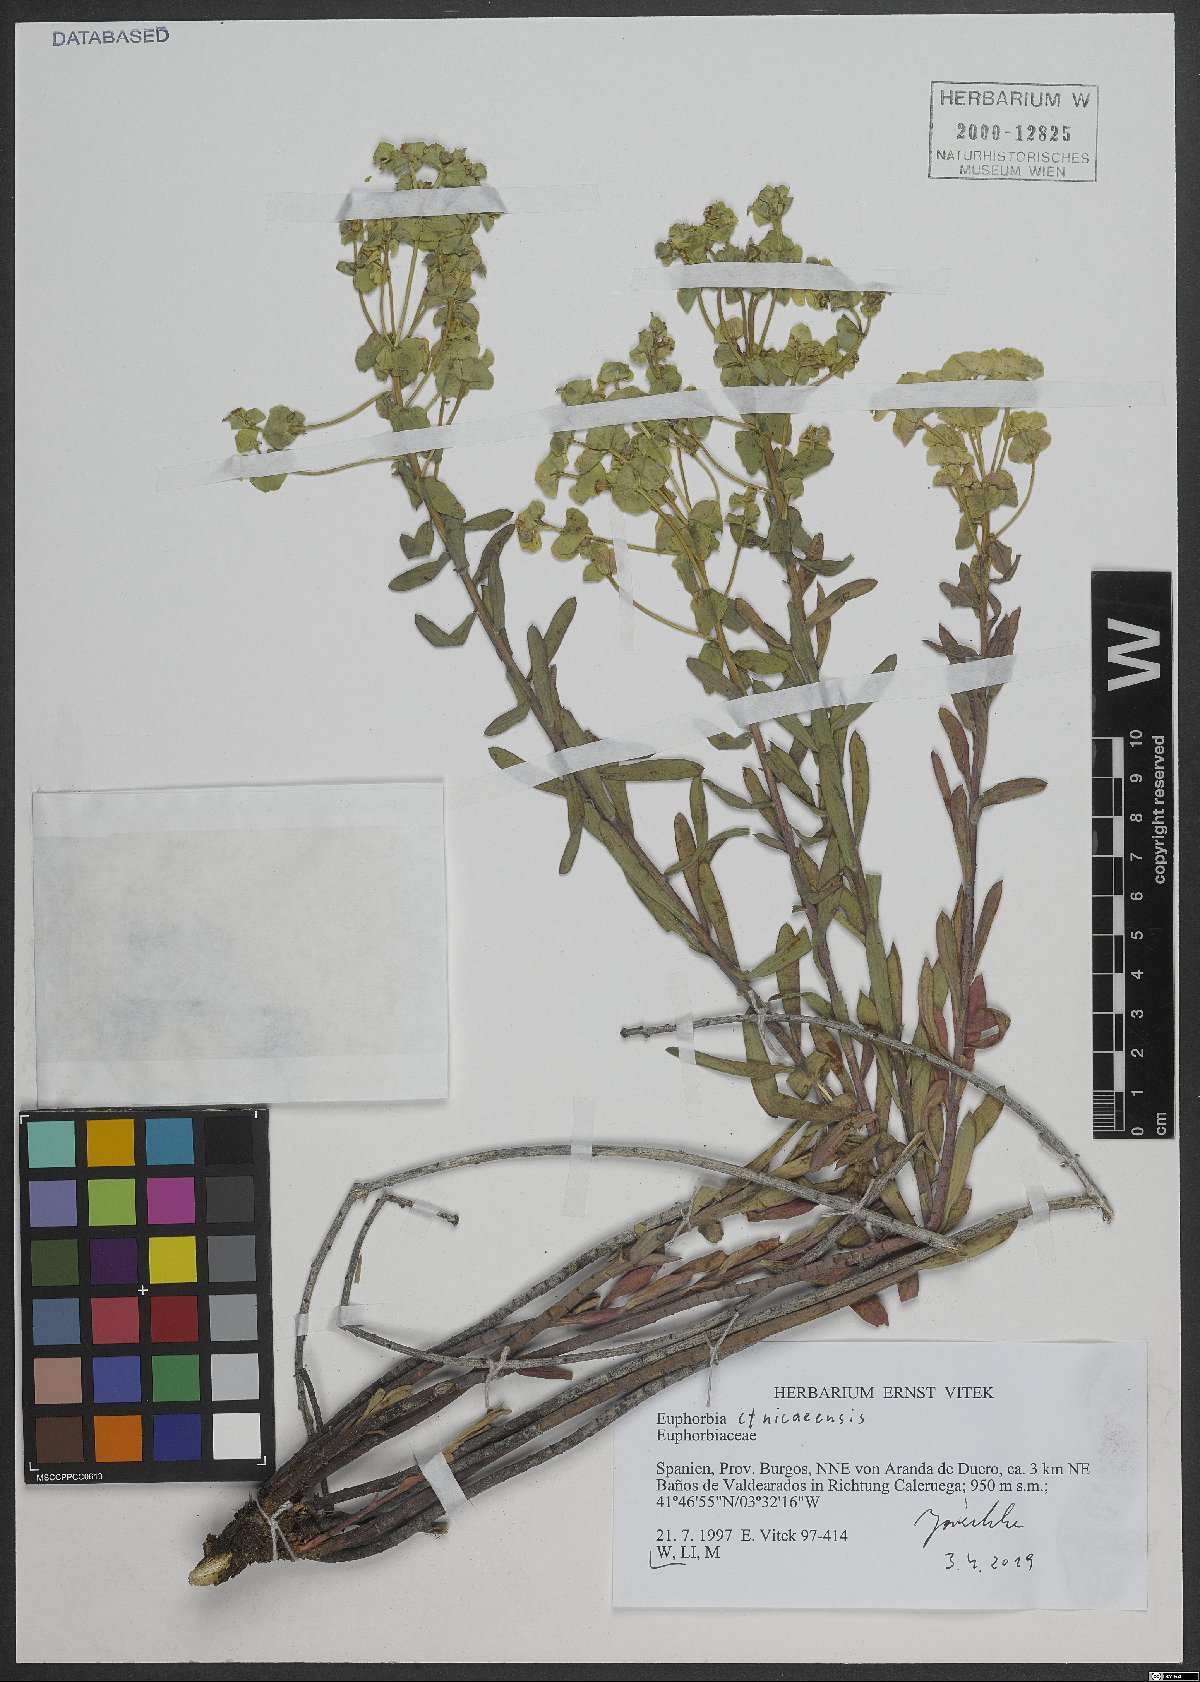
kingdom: Plantae
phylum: Tracheophyta
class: Magnoliopsida
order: Malpighiales
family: Euphorbiaceae
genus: Euphorbia
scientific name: Euphorbia nicaeensis
